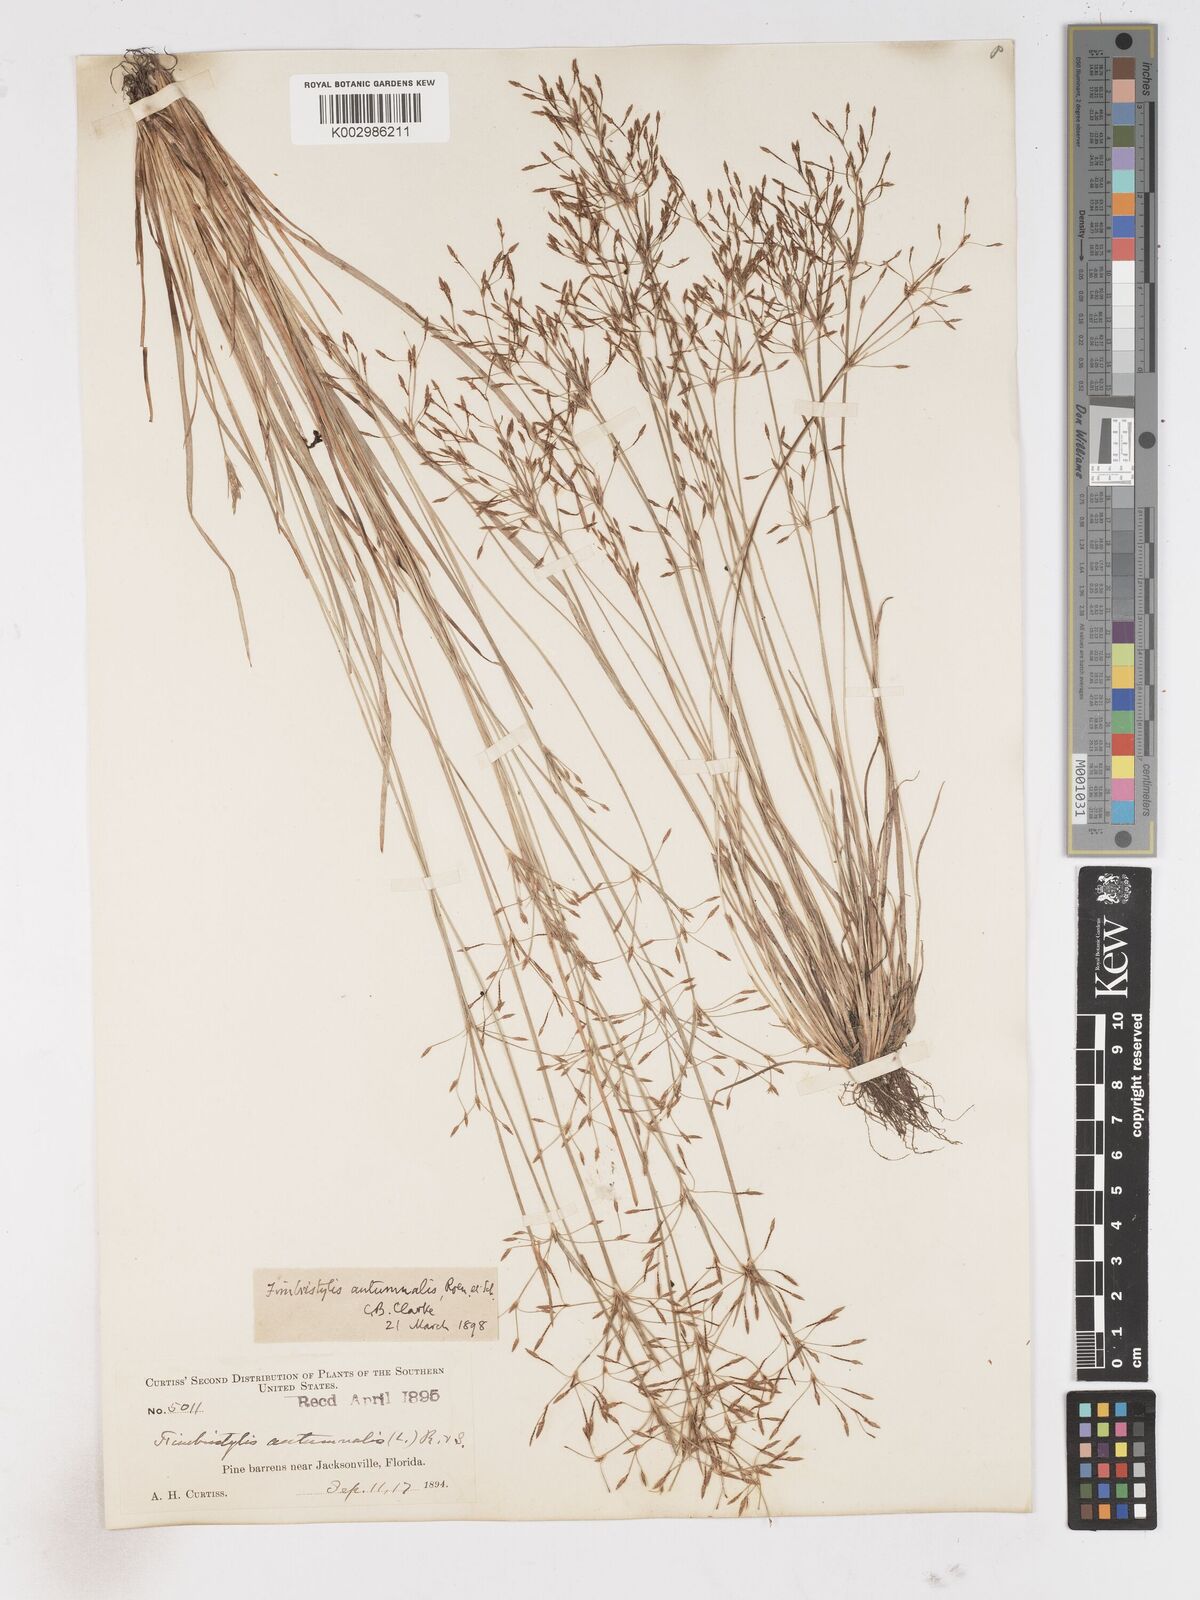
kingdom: Plantae
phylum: Tracheophyta
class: Liliopsida
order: Poales
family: Cyperaceae
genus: Fimbristylis
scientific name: Fimbristylis autumnalis
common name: Slender fimbristylis
